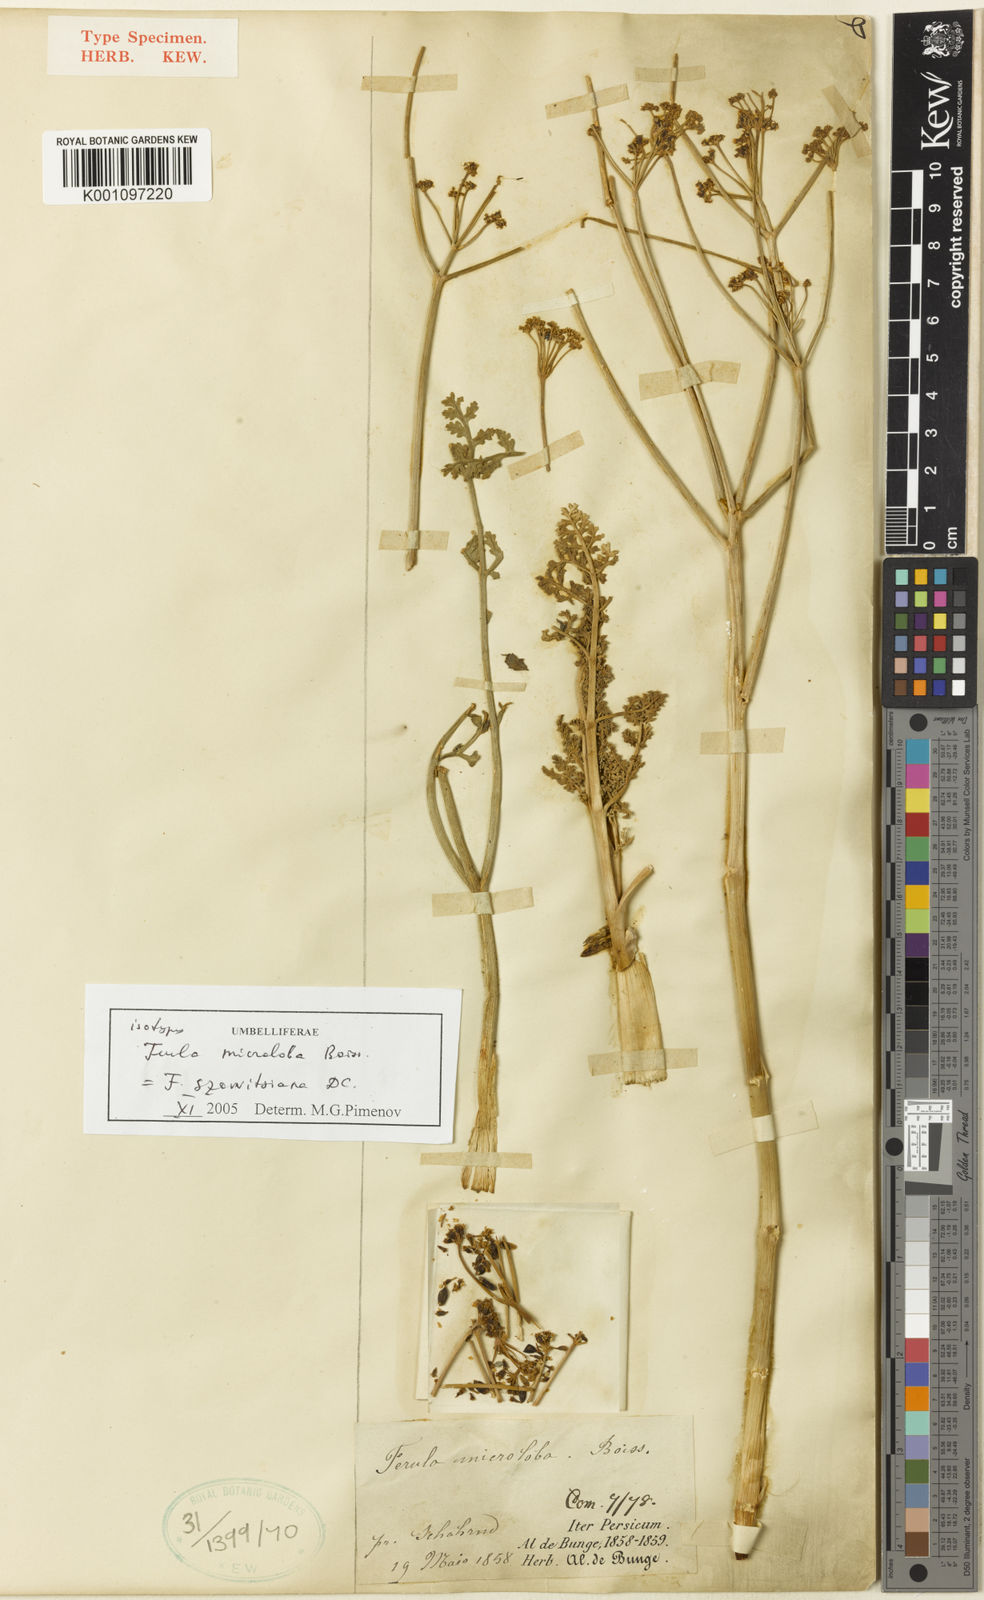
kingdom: Plantae
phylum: Tracheophyta
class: Magnoliopsida
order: Apiales
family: Apiaceae
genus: Ferula
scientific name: Ferula szowitsiana
